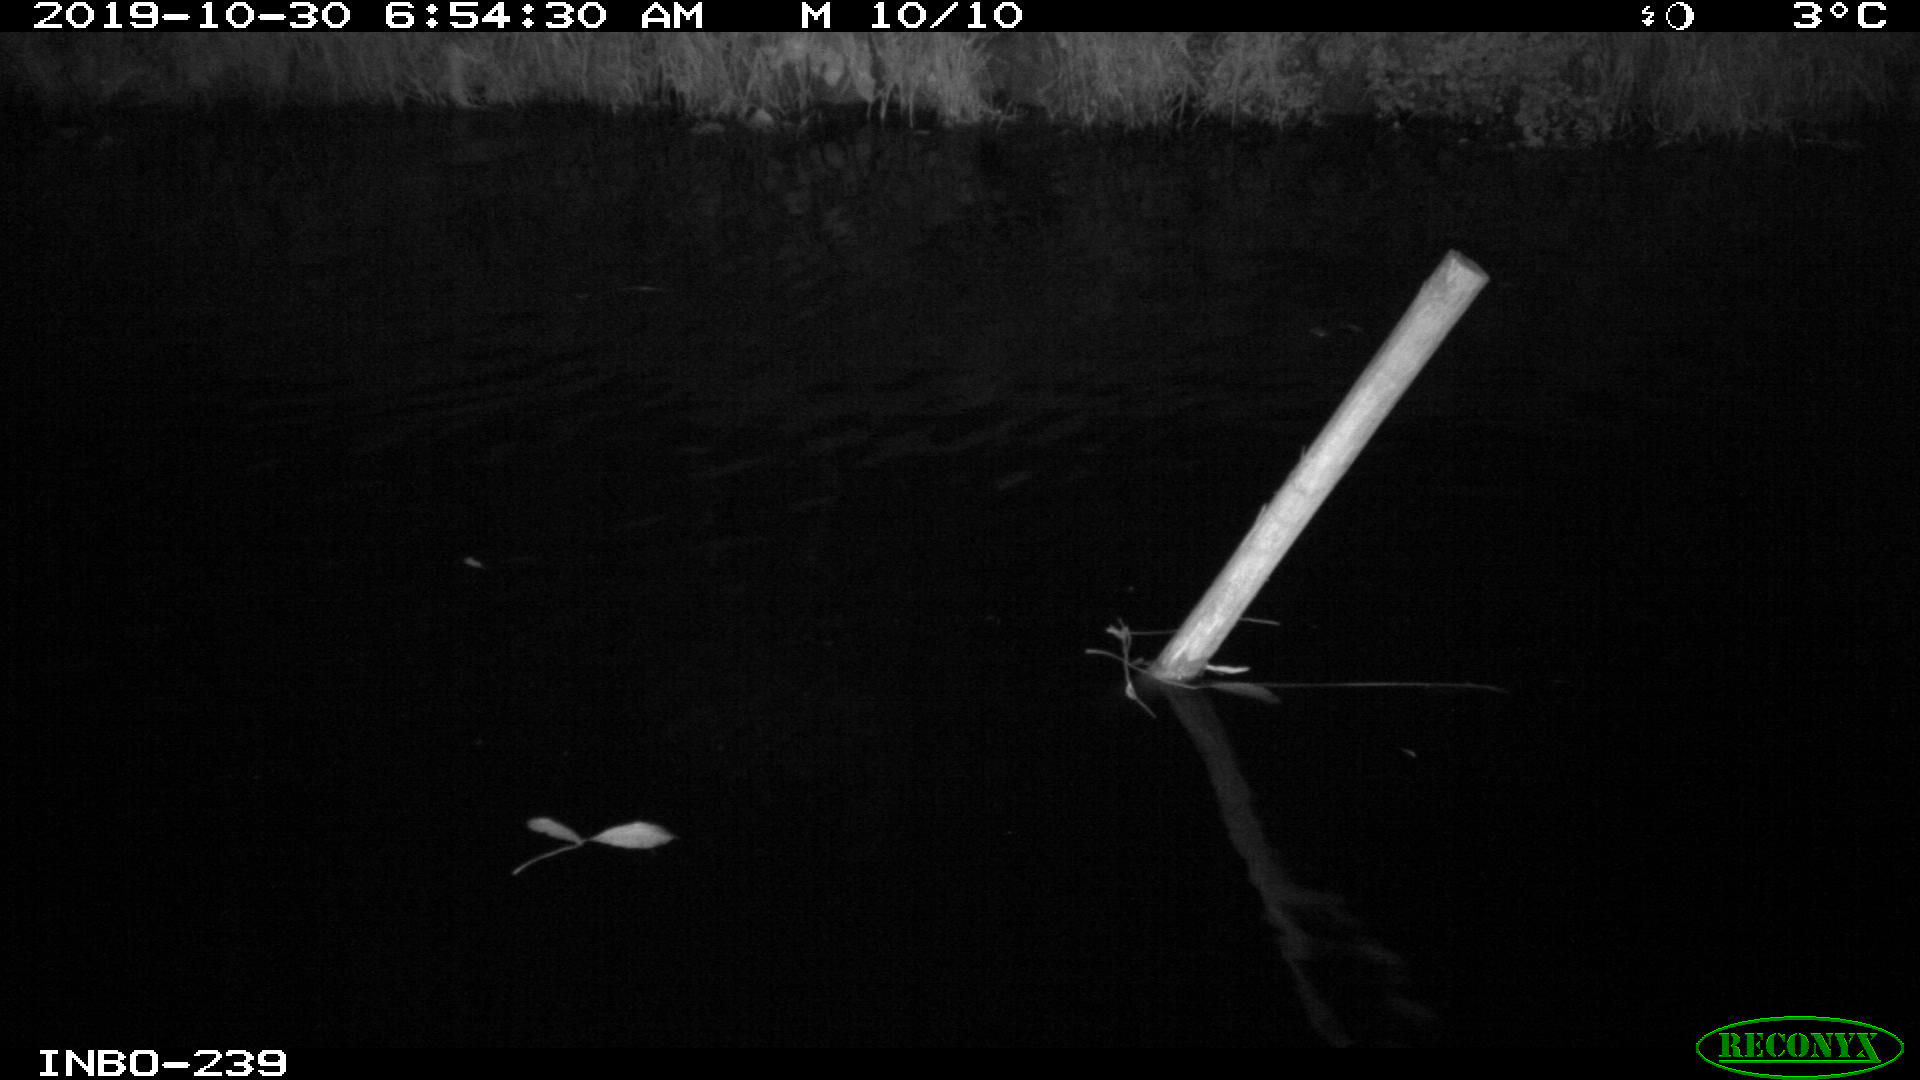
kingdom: Animalia
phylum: Chordata
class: Aves
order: Anseriformes
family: Anatidae
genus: Anas
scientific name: Anas platyrhynchos
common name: Mallard
